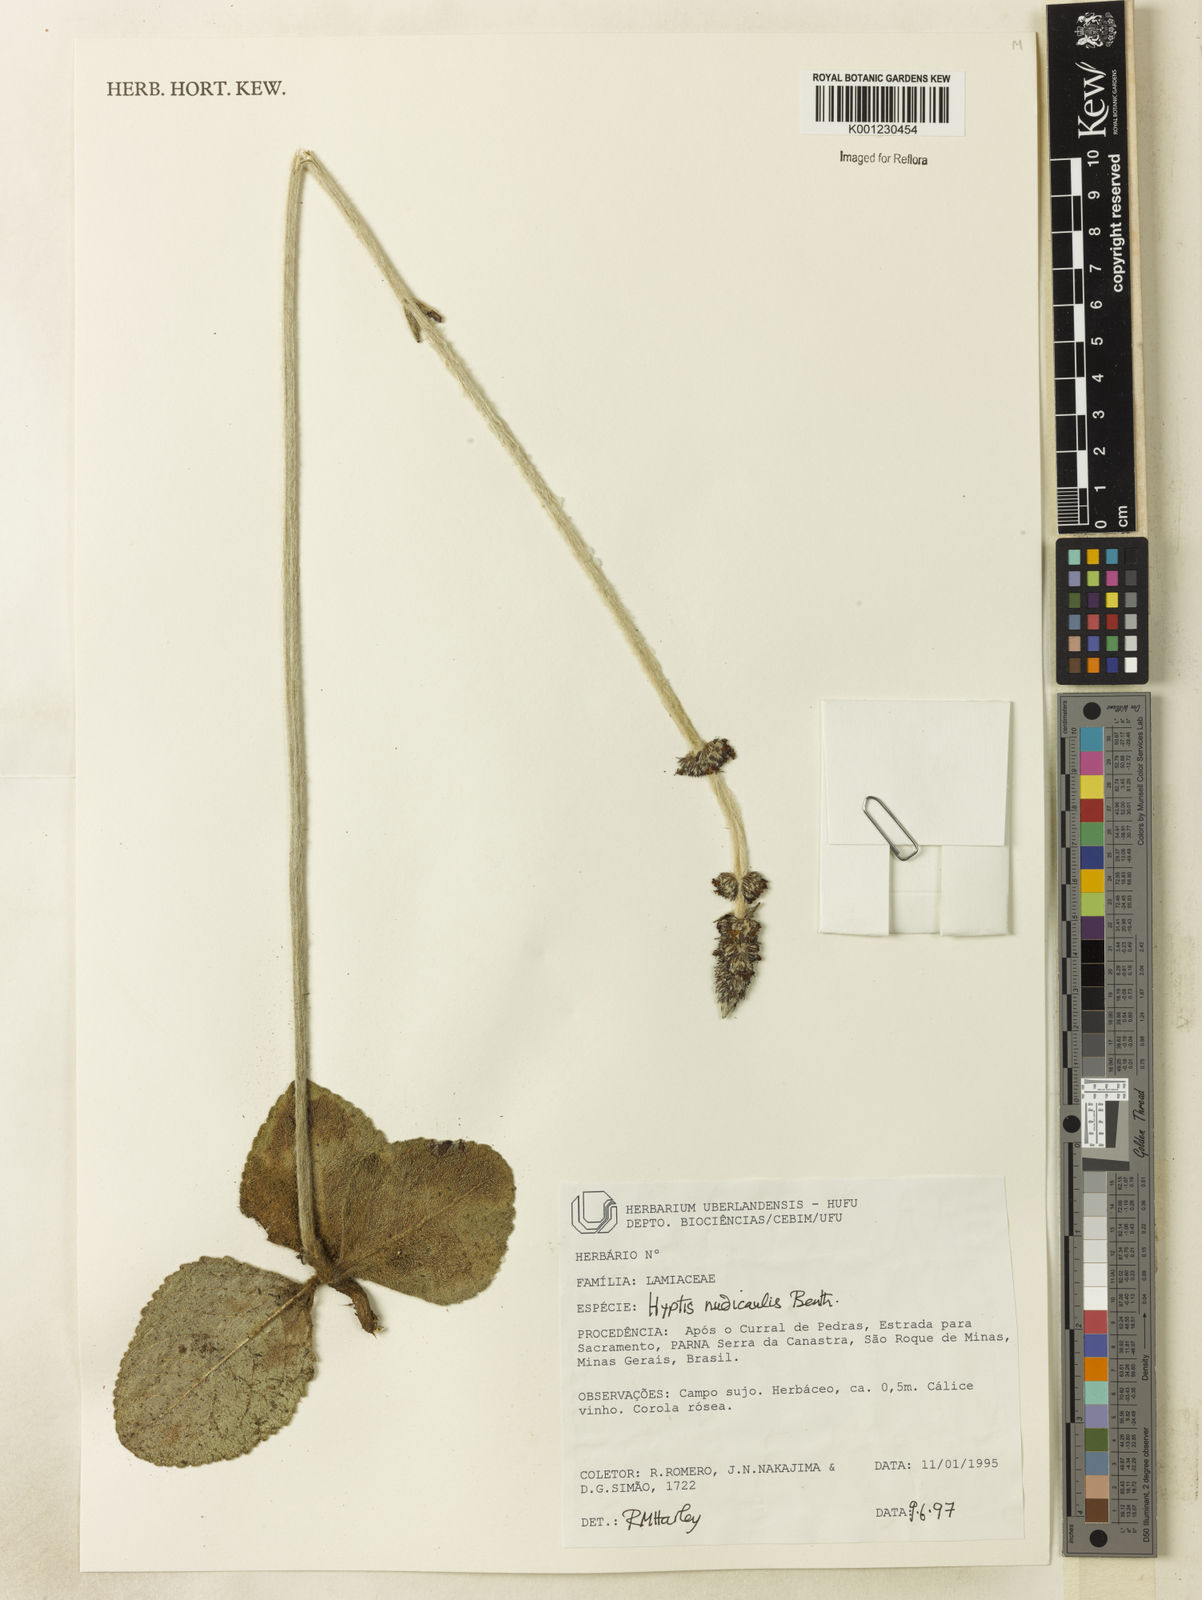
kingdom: Plantae
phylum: Tracheophyta
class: Magnoliopsida
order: Lamiales
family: Lamiaceae
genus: Hyptis
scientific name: Hyptis nudicaulis
